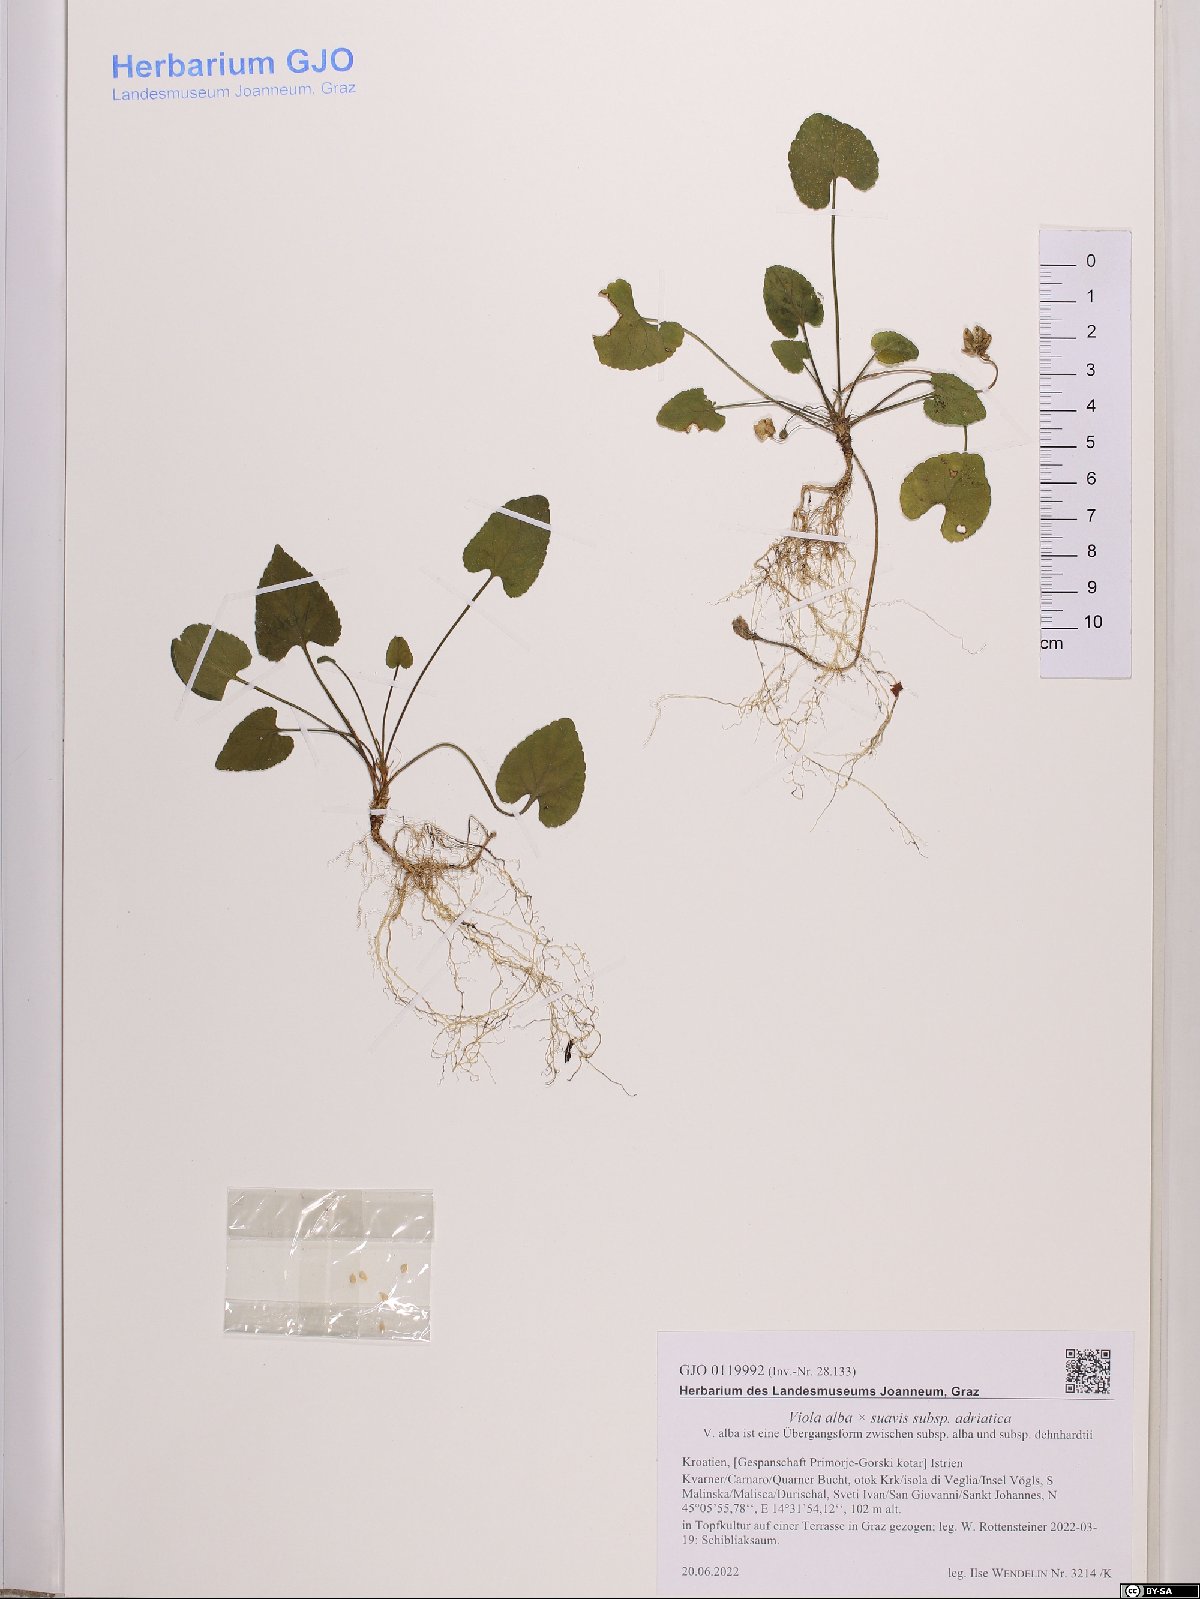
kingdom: Plantae
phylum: Tracheophyta
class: Magnoliopsida
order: Malpighiales
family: Violaceae
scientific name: Violaceae
